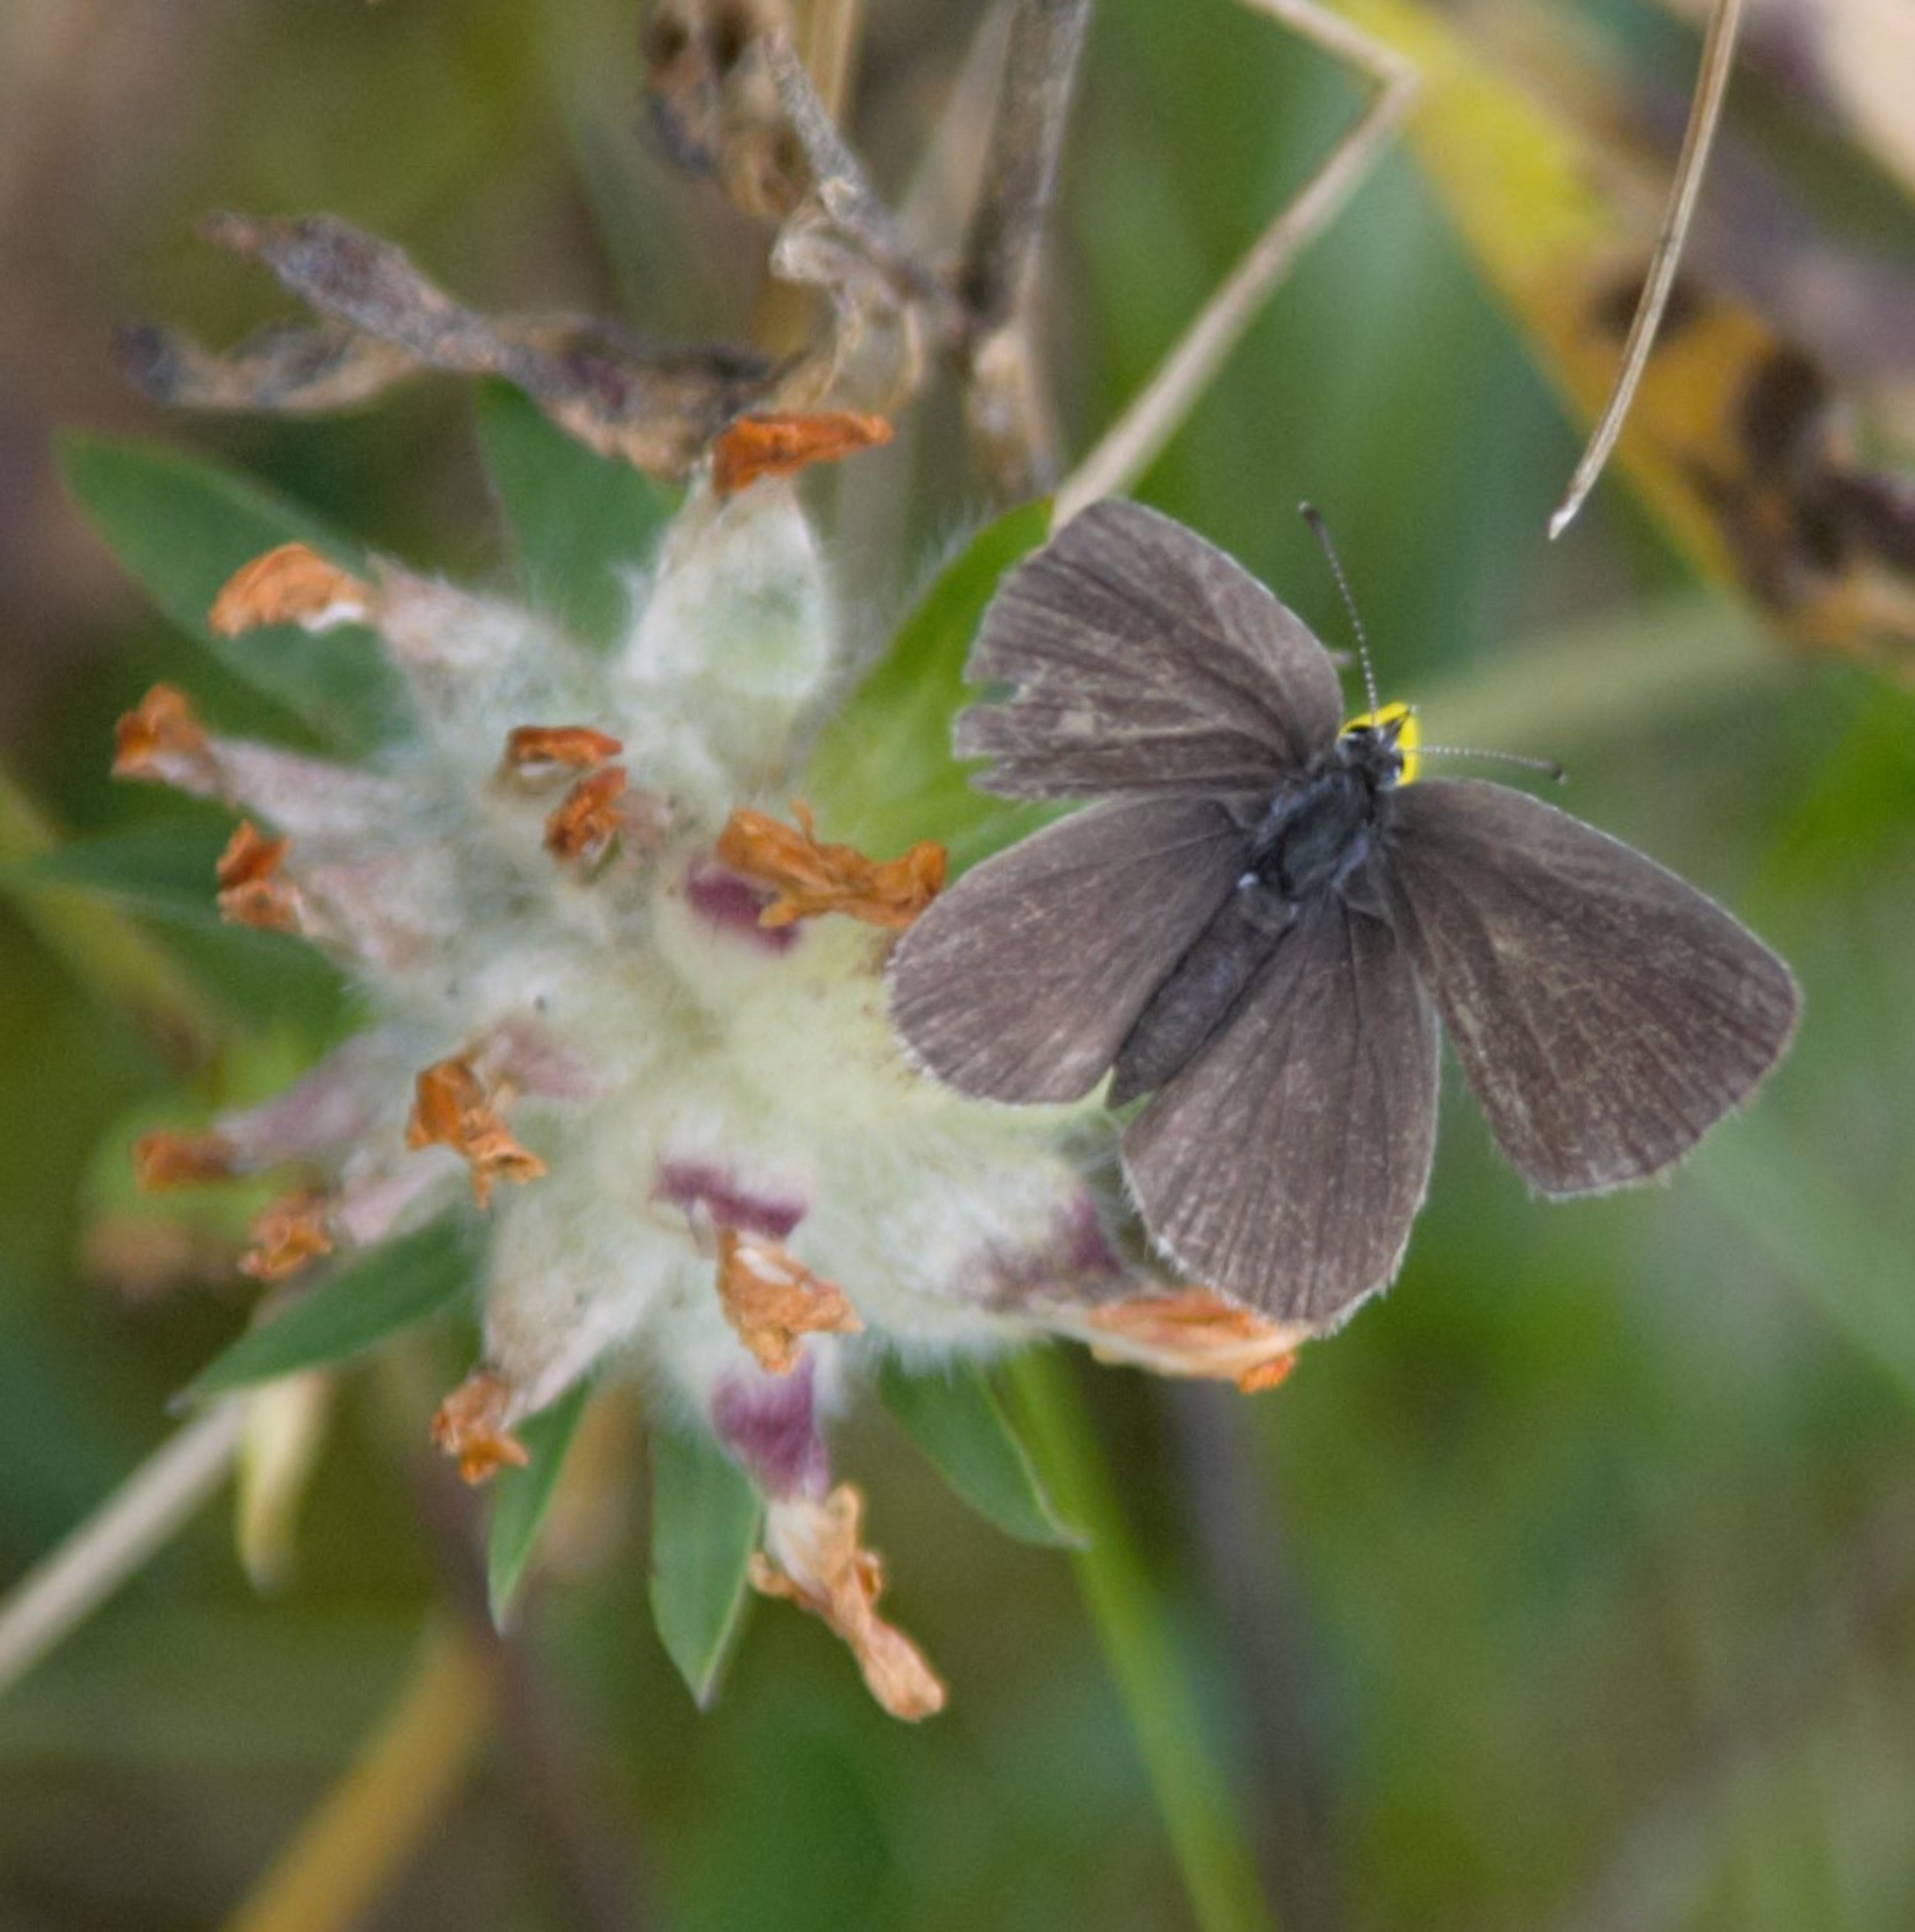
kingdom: Animalia
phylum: Arthropoda
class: Insecta
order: Lepidoptera
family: Lycaenidae
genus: Cupido
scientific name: Cupido minimus
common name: Dværgblåfugl
